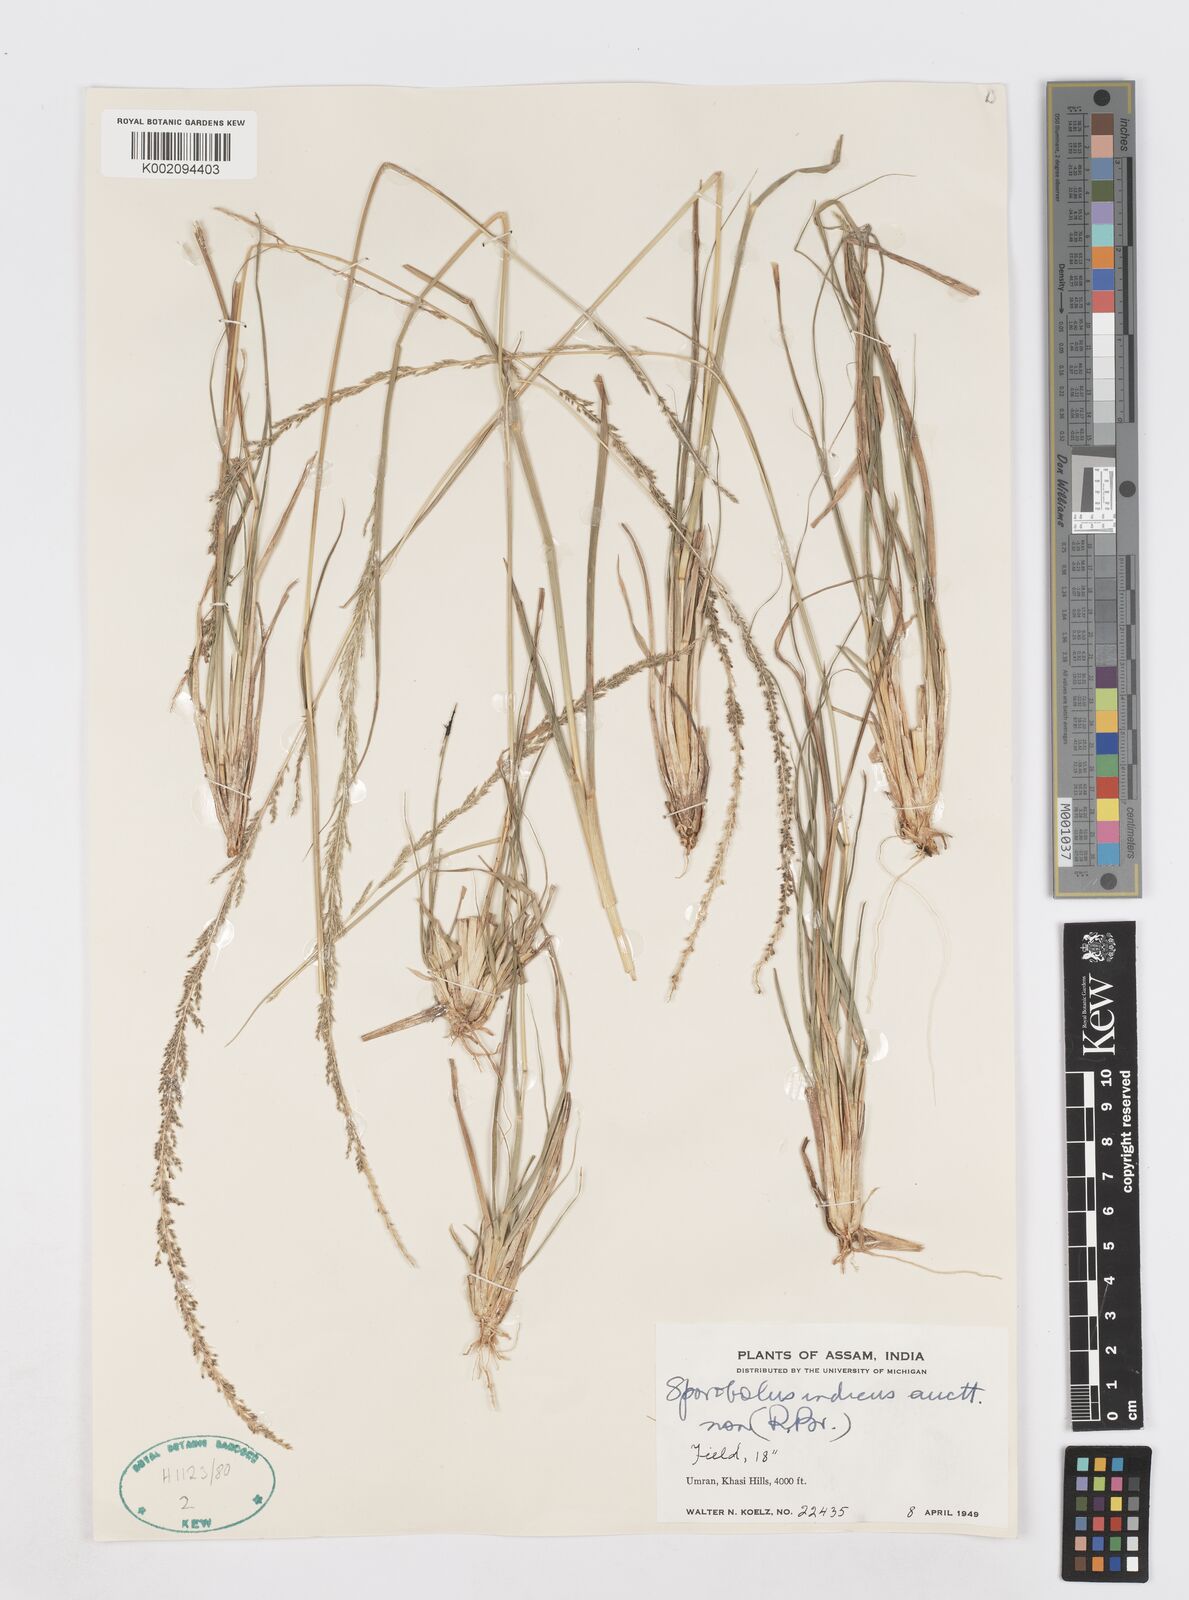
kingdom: Plantae
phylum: Tracheophyta
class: Liliopsida
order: Poales
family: Poaceae
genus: Sporobolus
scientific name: Sporobolus fertilis
